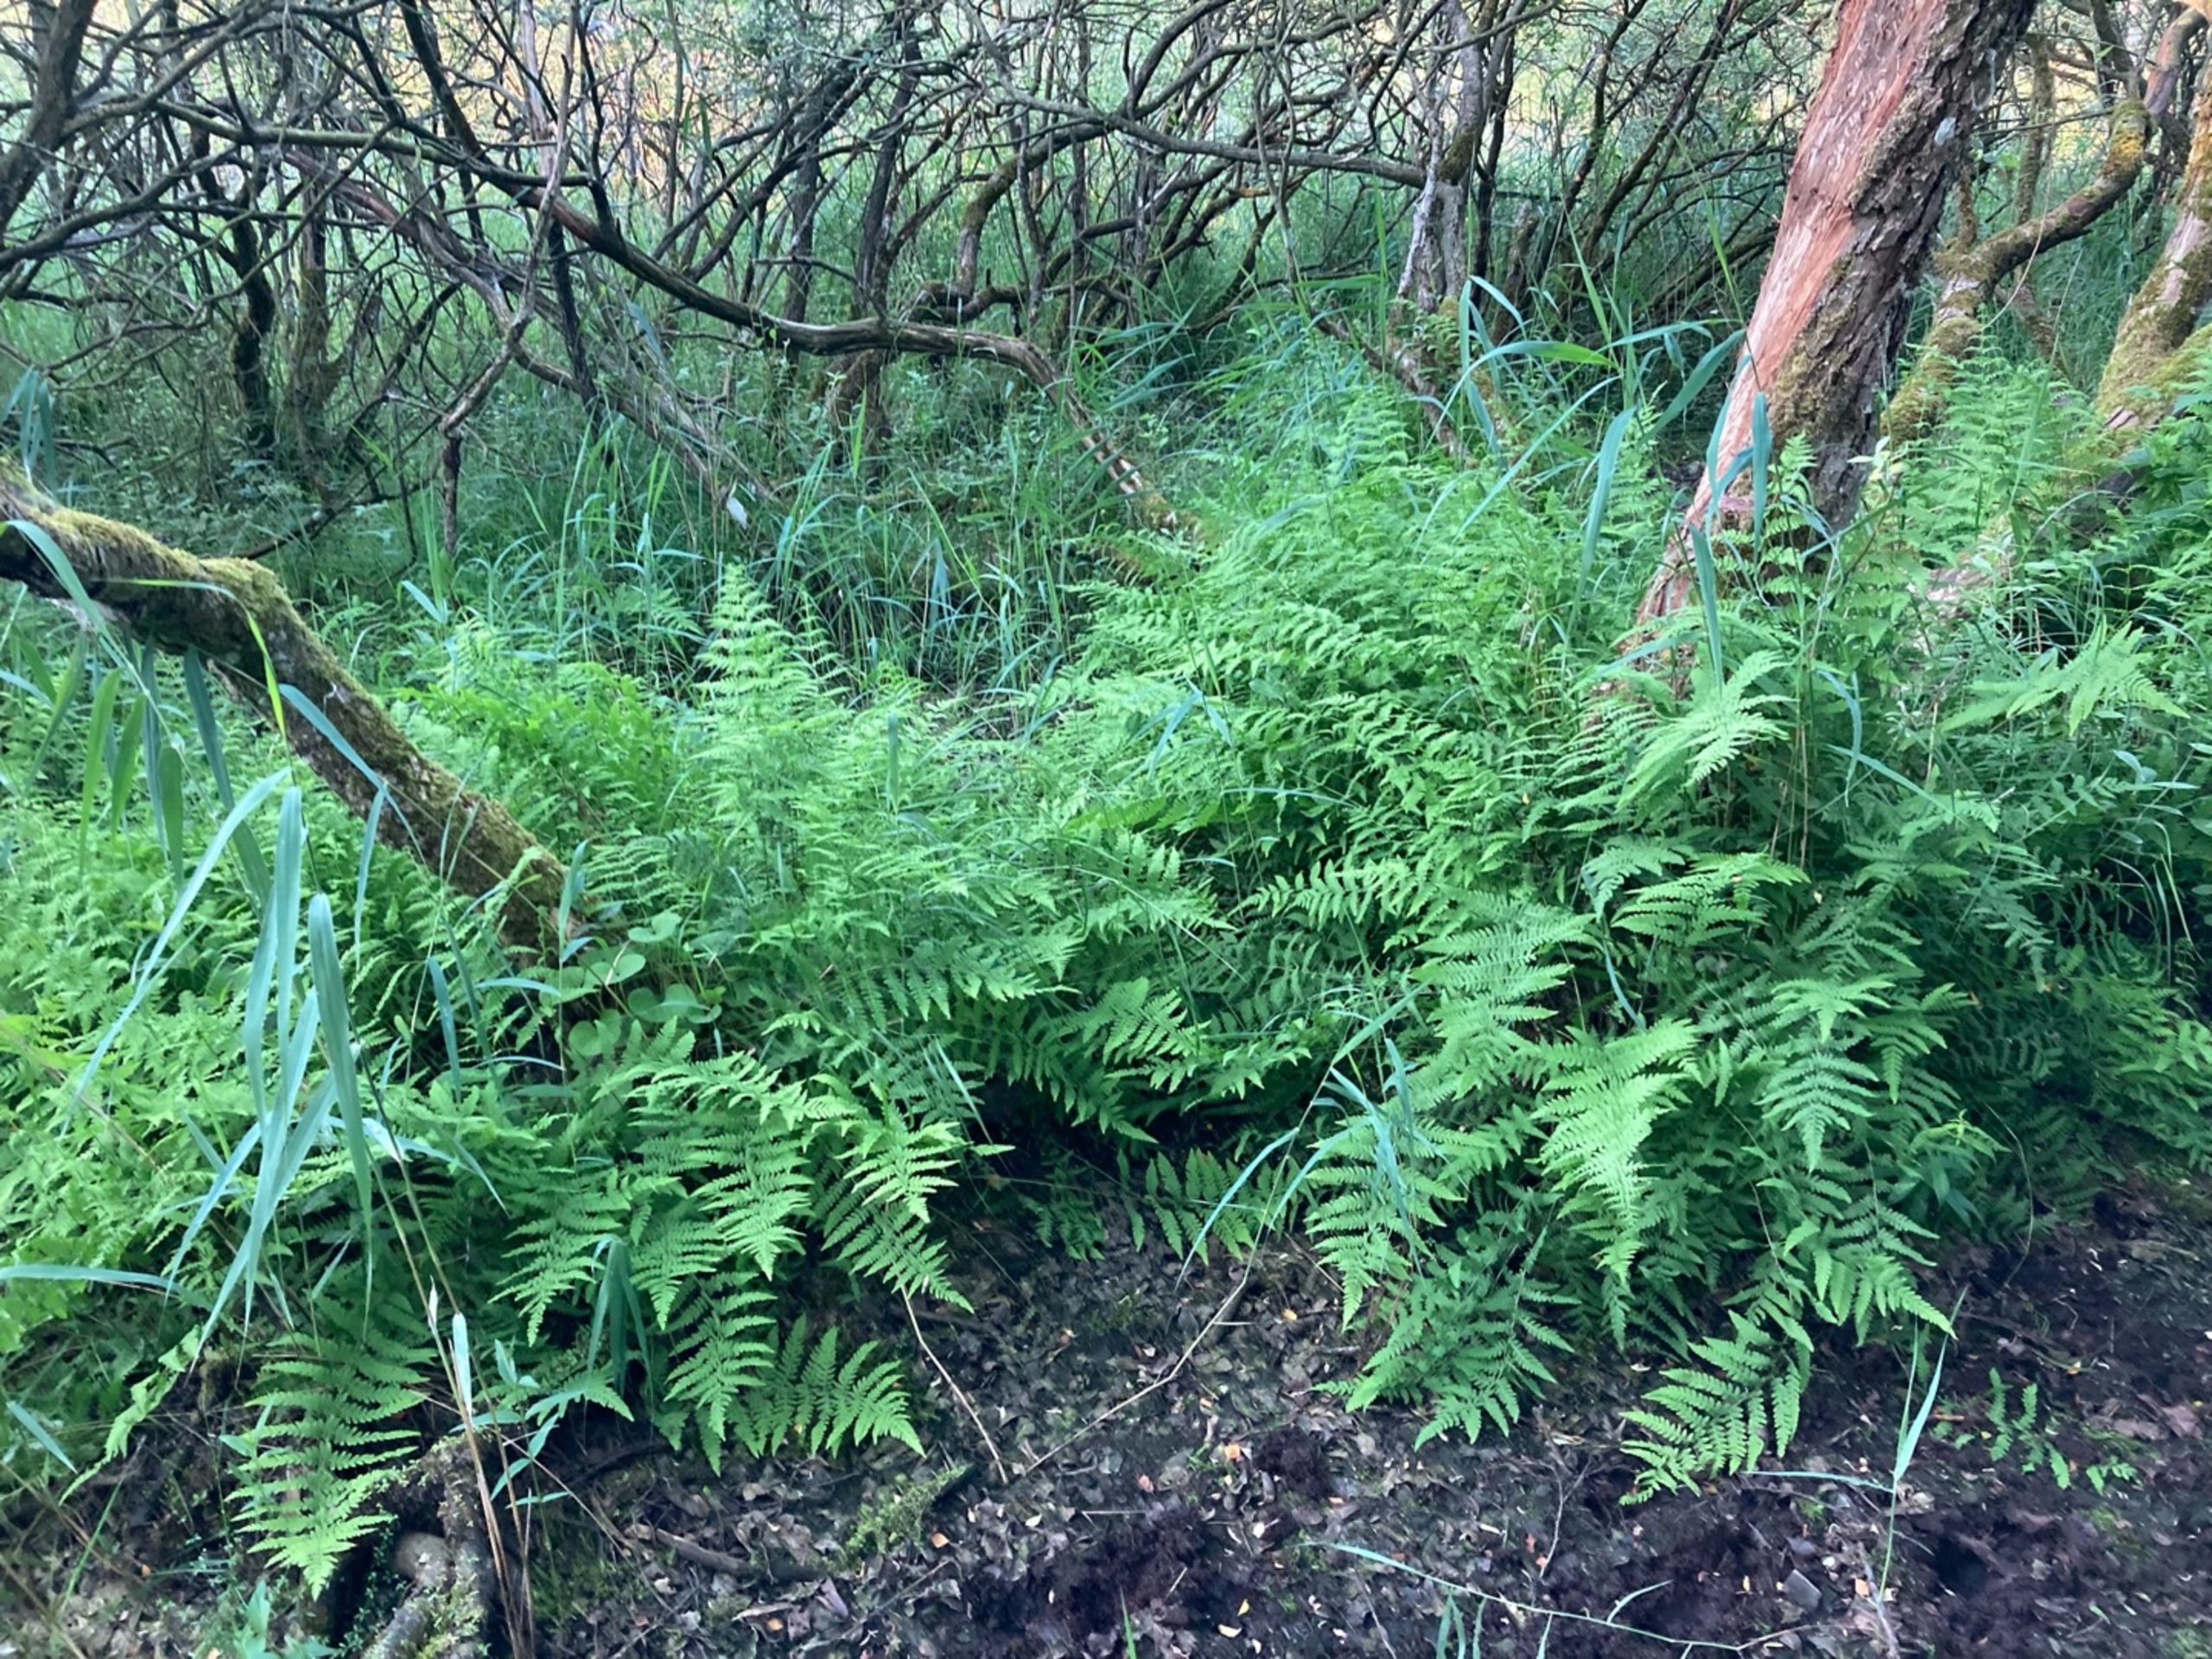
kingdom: Plantae
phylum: Tracheophyta
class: Polypodiopsida
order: Polypodiales
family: Thelypteridaceae
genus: Thelypteris
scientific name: Thelypteris palustris
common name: Kærmangeløv
